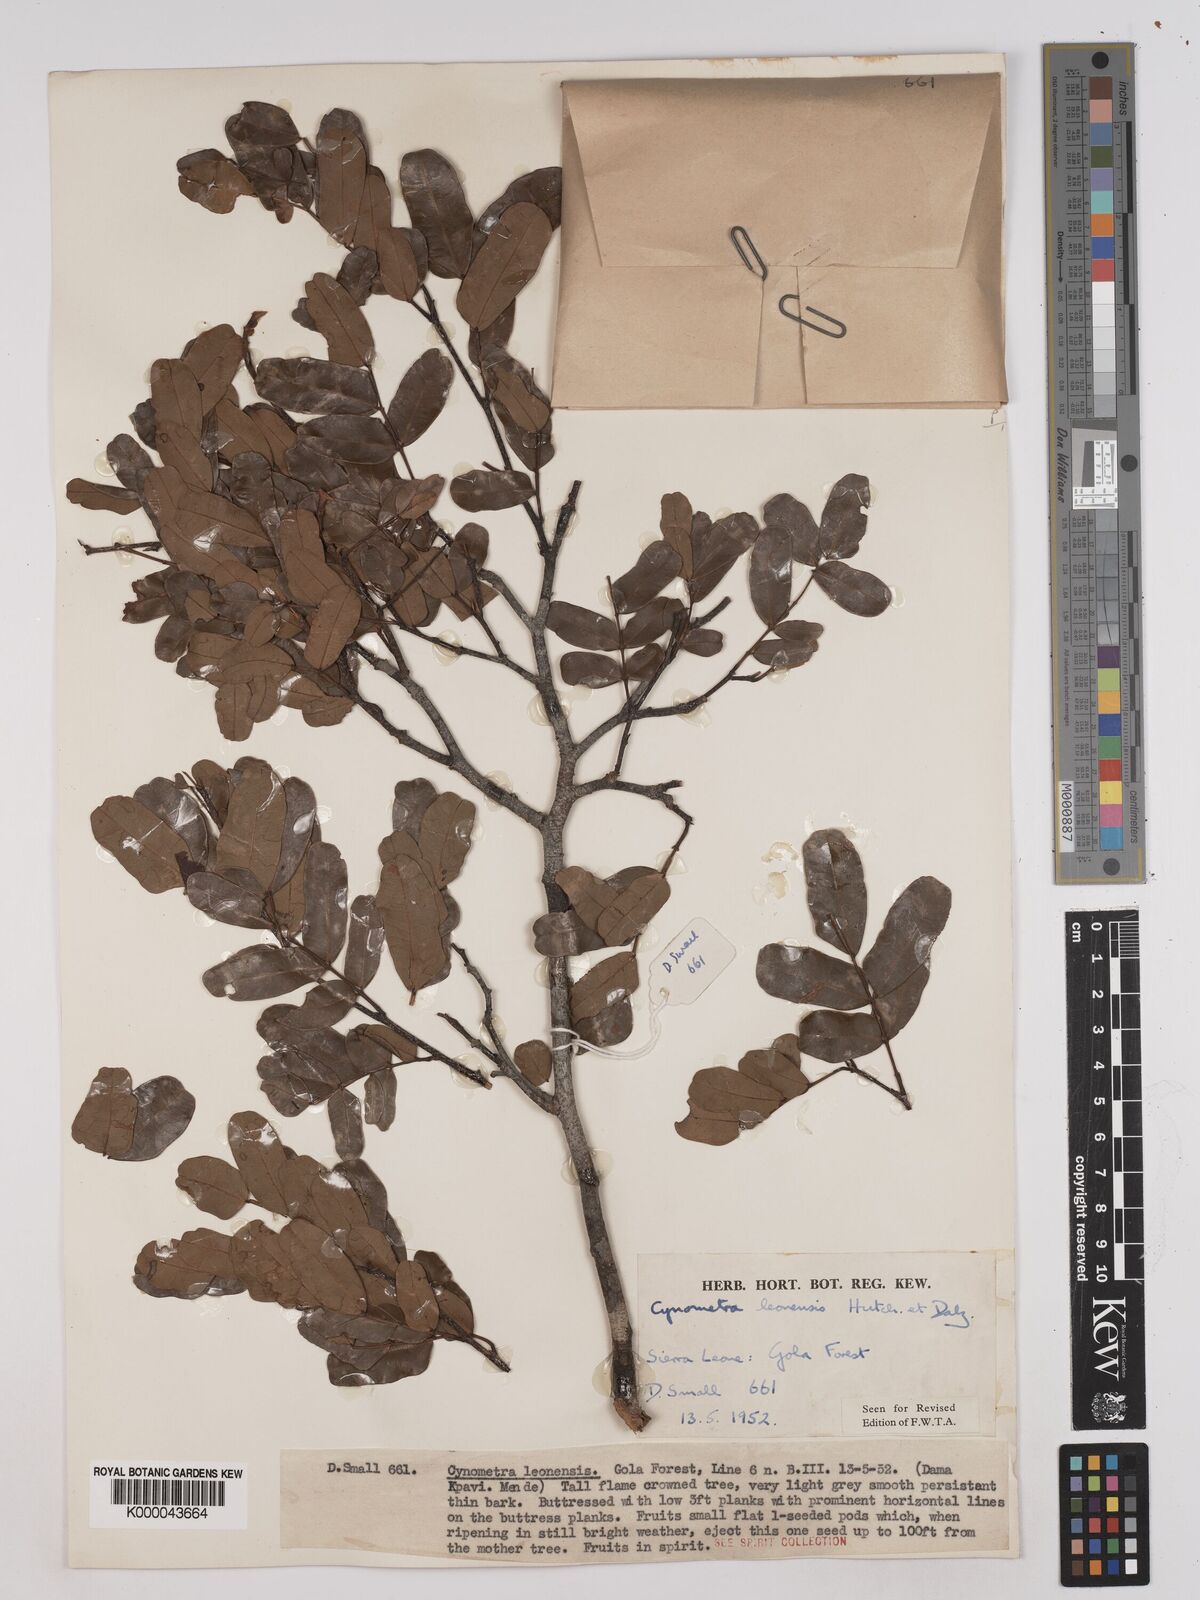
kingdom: Plantae
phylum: Tracheophyta
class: Magnoliopsida
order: Fabales
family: Fabaceae
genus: Cynometra
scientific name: Cynometra leonensis
